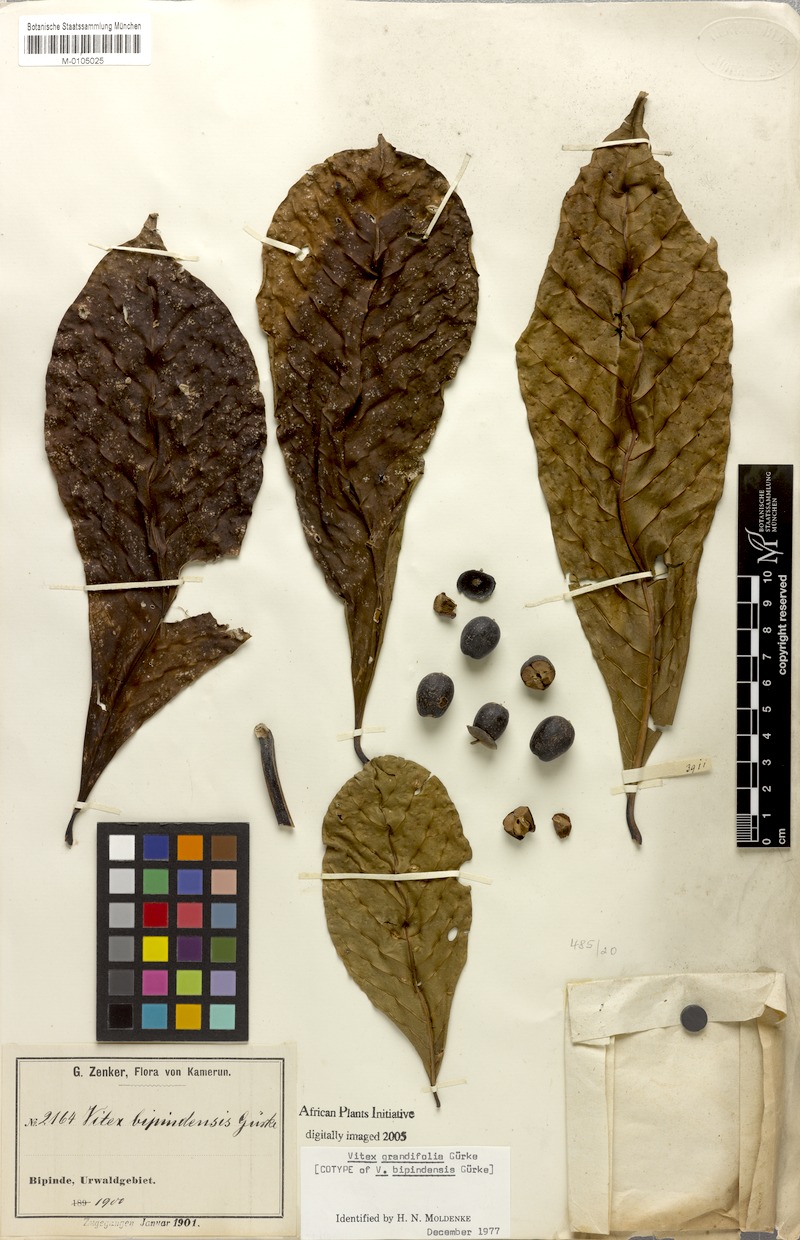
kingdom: Plantae
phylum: Tracheophyta
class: Magnoliopsida
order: Lamiales
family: Lamiaceae
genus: Vitex
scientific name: Vitex grandifolia
